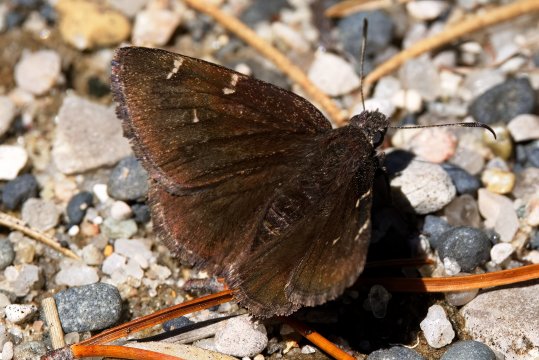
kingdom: Animalia
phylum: Arthropoda
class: Insecta
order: Lepidoptera
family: Hesperiidae
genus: Autochton
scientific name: Autochton
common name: Northern Cloudywing
